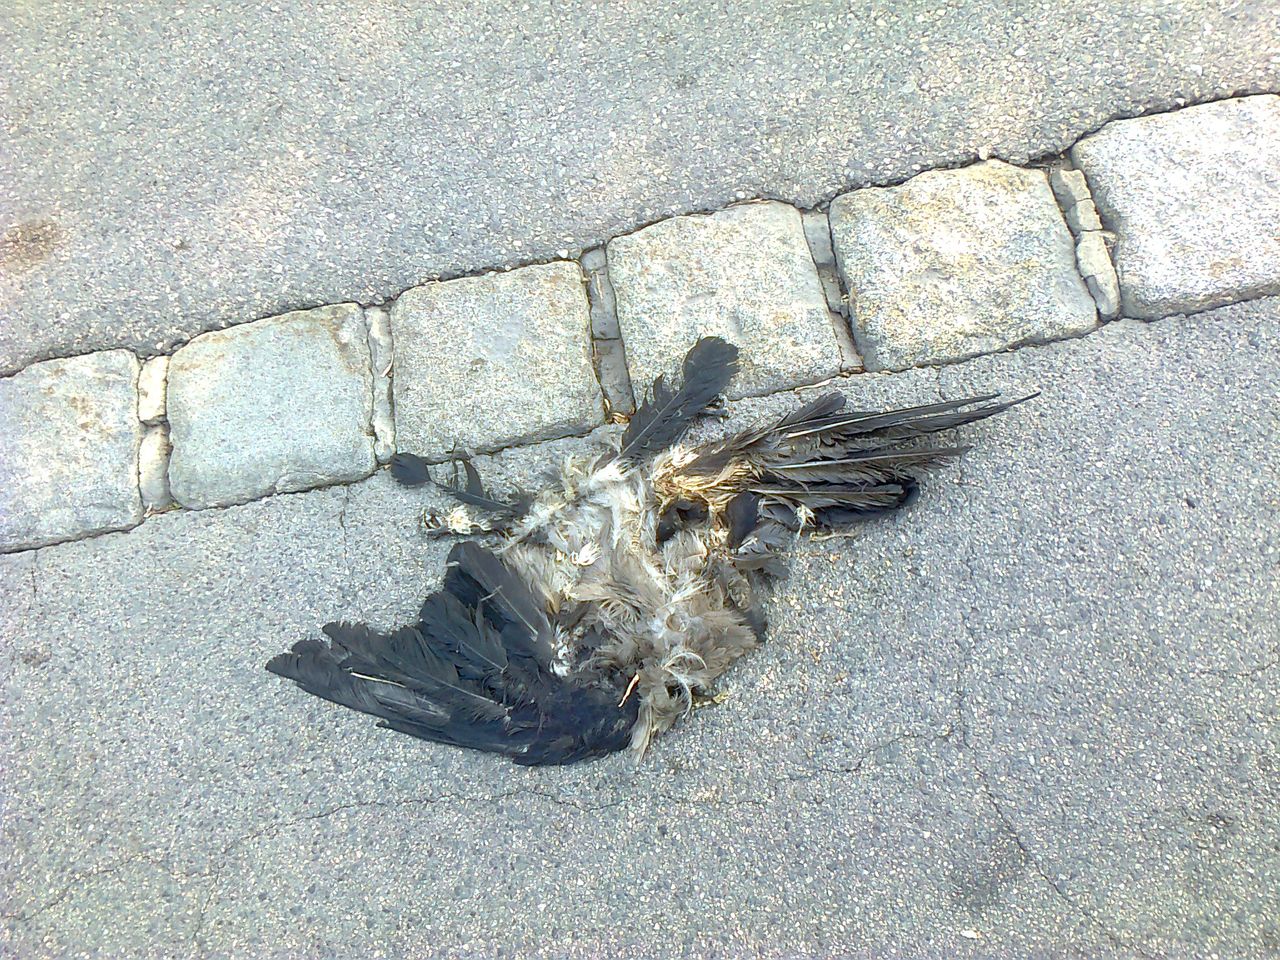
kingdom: Animalia
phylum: Chordata
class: Aves
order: Passeriformes
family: Corvidae
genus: Corvus
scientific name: Corvus corone
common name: Carrion crow
